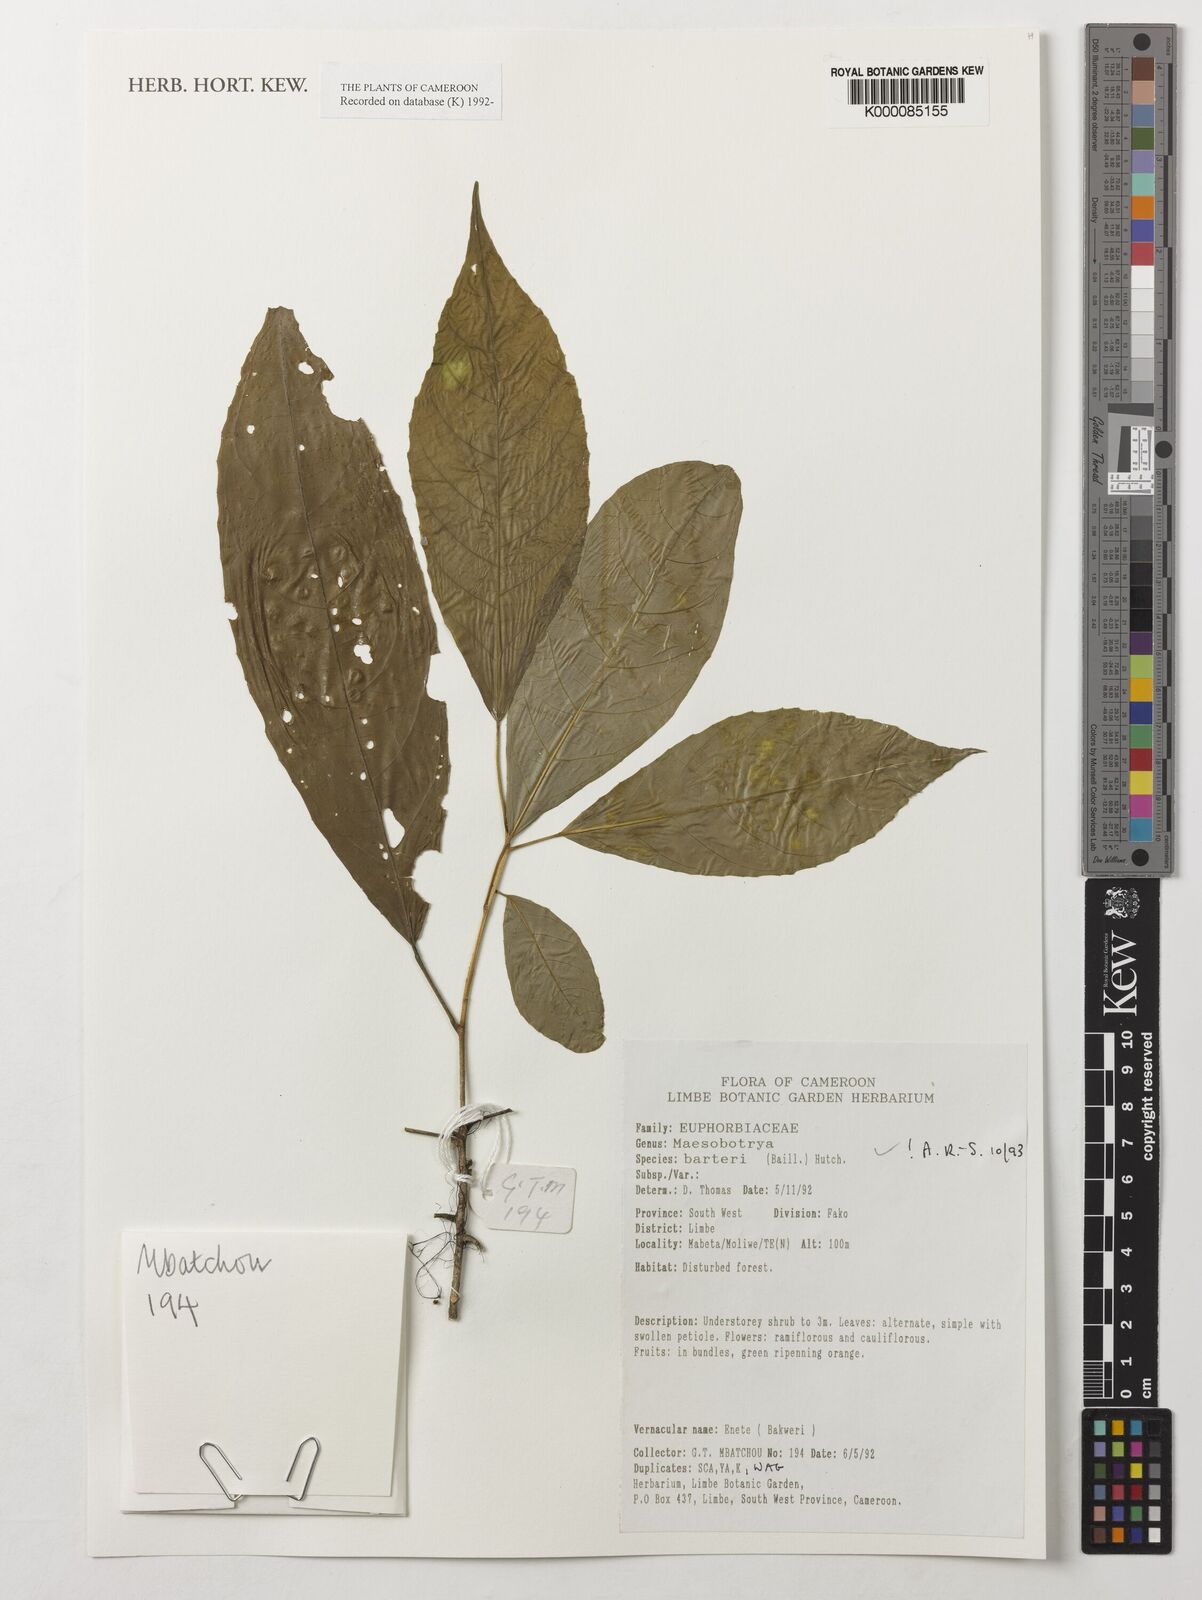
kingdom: Plantae
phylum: Tracheophyta
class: Magnoliopsida
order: Malpighiales
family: Phyllanthaceae
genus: Maesobotrya
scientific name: Maesobotrya barteri
